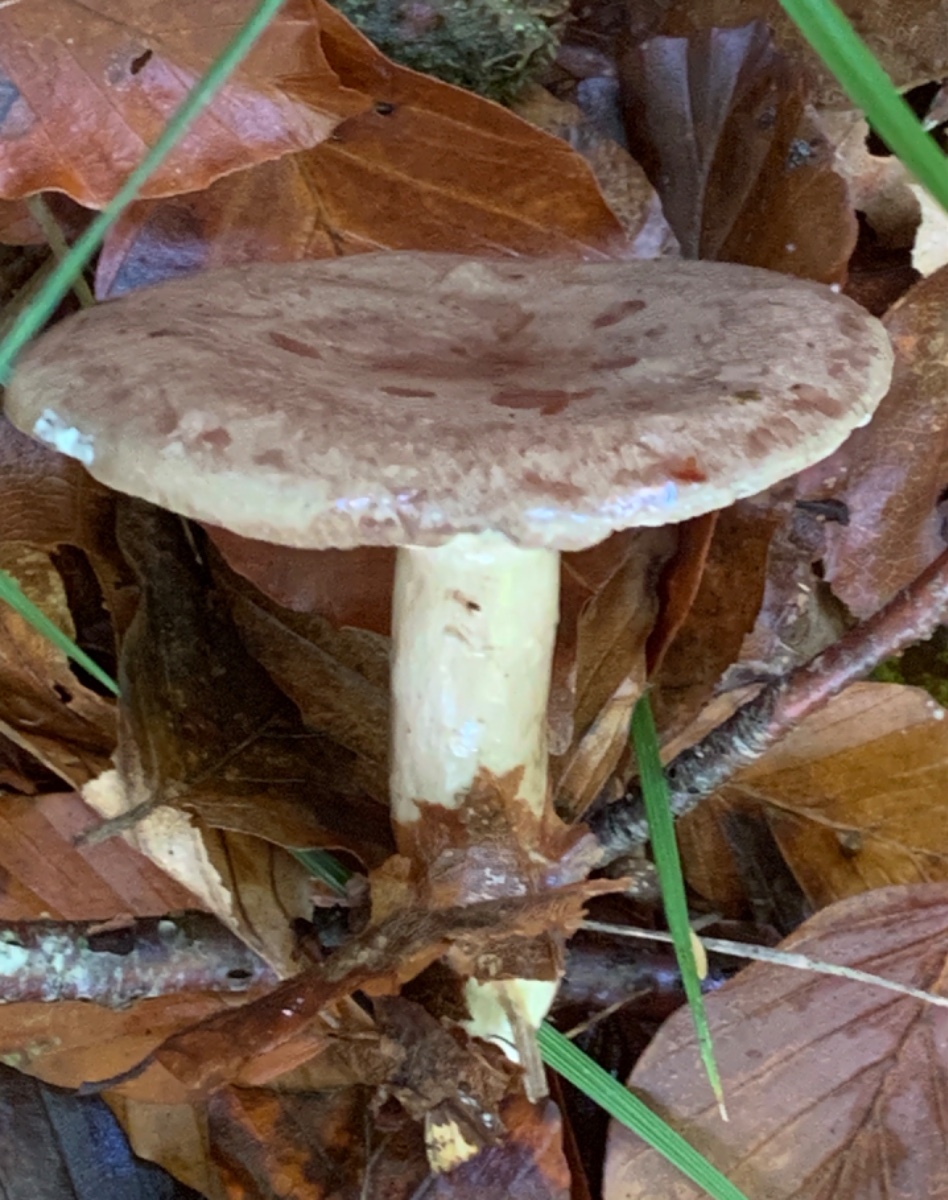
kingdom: Fungi
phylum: Basidiomycota
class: Agaricomycetes
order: Russulales
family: Russulaceae
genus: Lactarius
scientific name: Lactarius blennius
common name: dråbeplettet mælkehat
